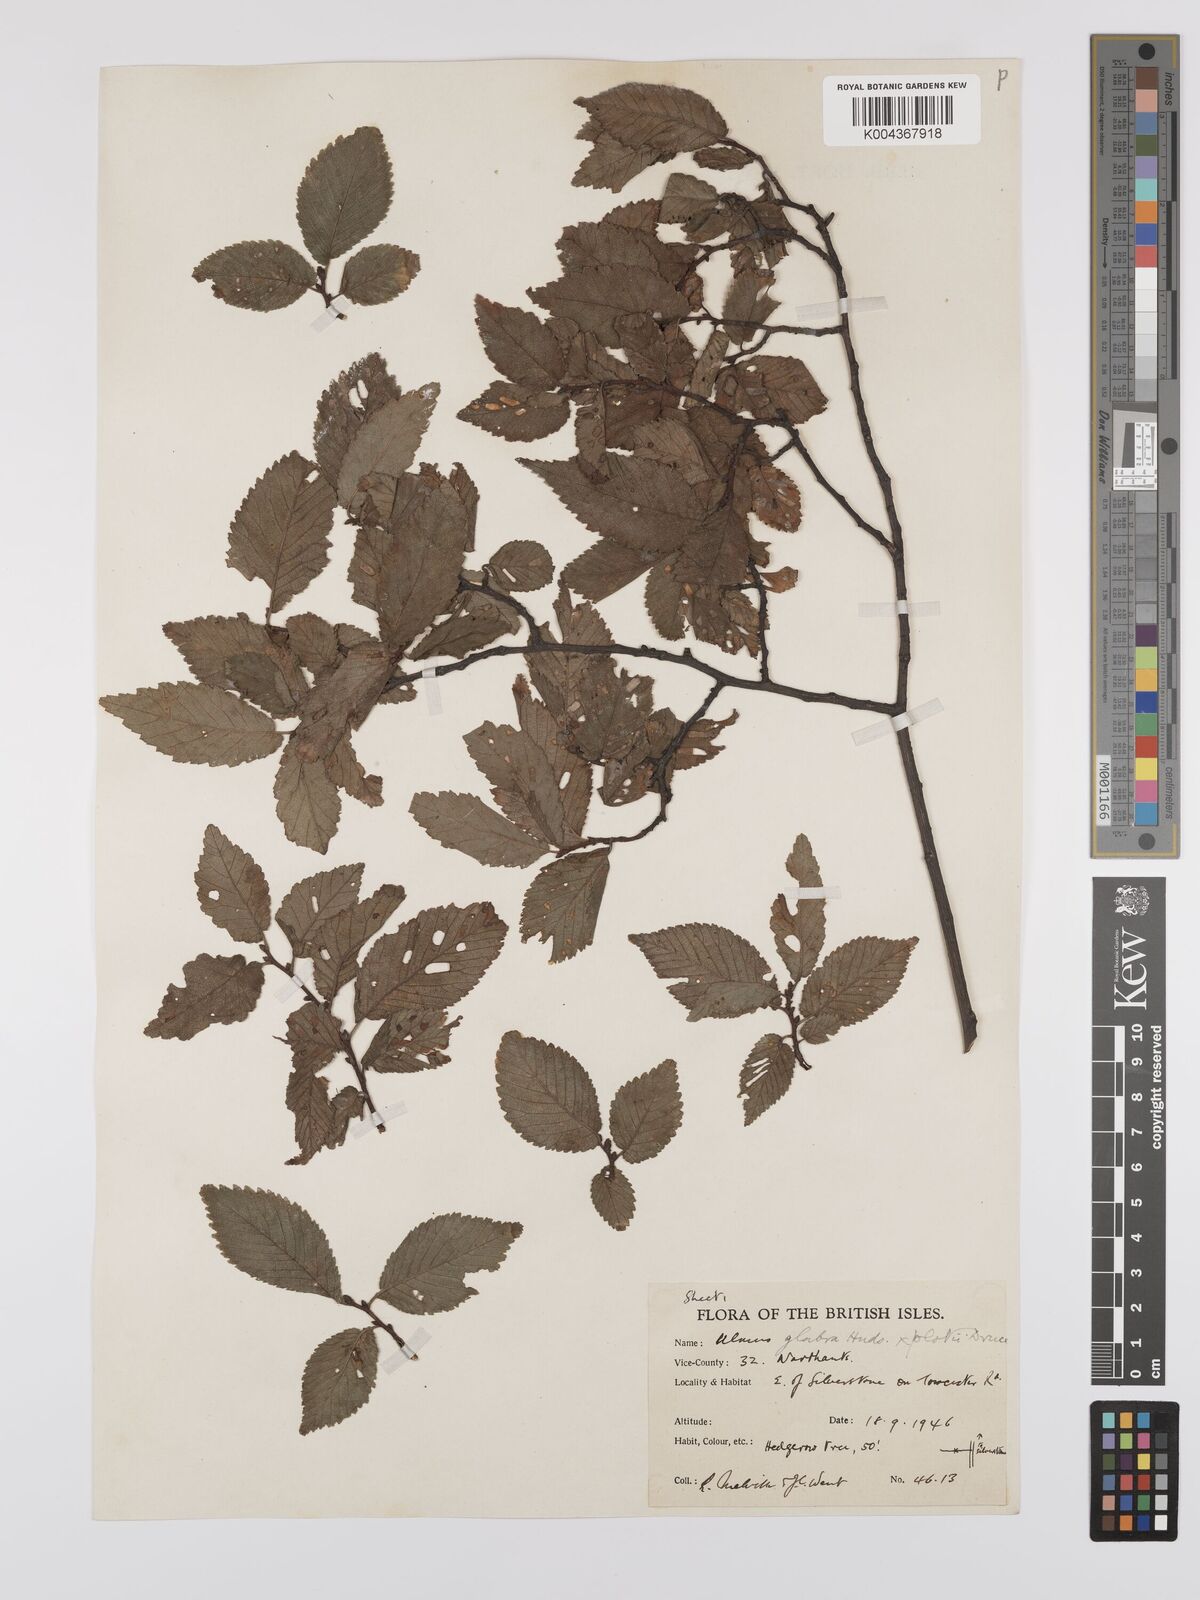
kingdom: Plantae
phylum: Tracheophyta
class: Magnoliopsida
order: Rosales
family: Ulmaceae
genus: Ulmus
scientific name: Ulmus
